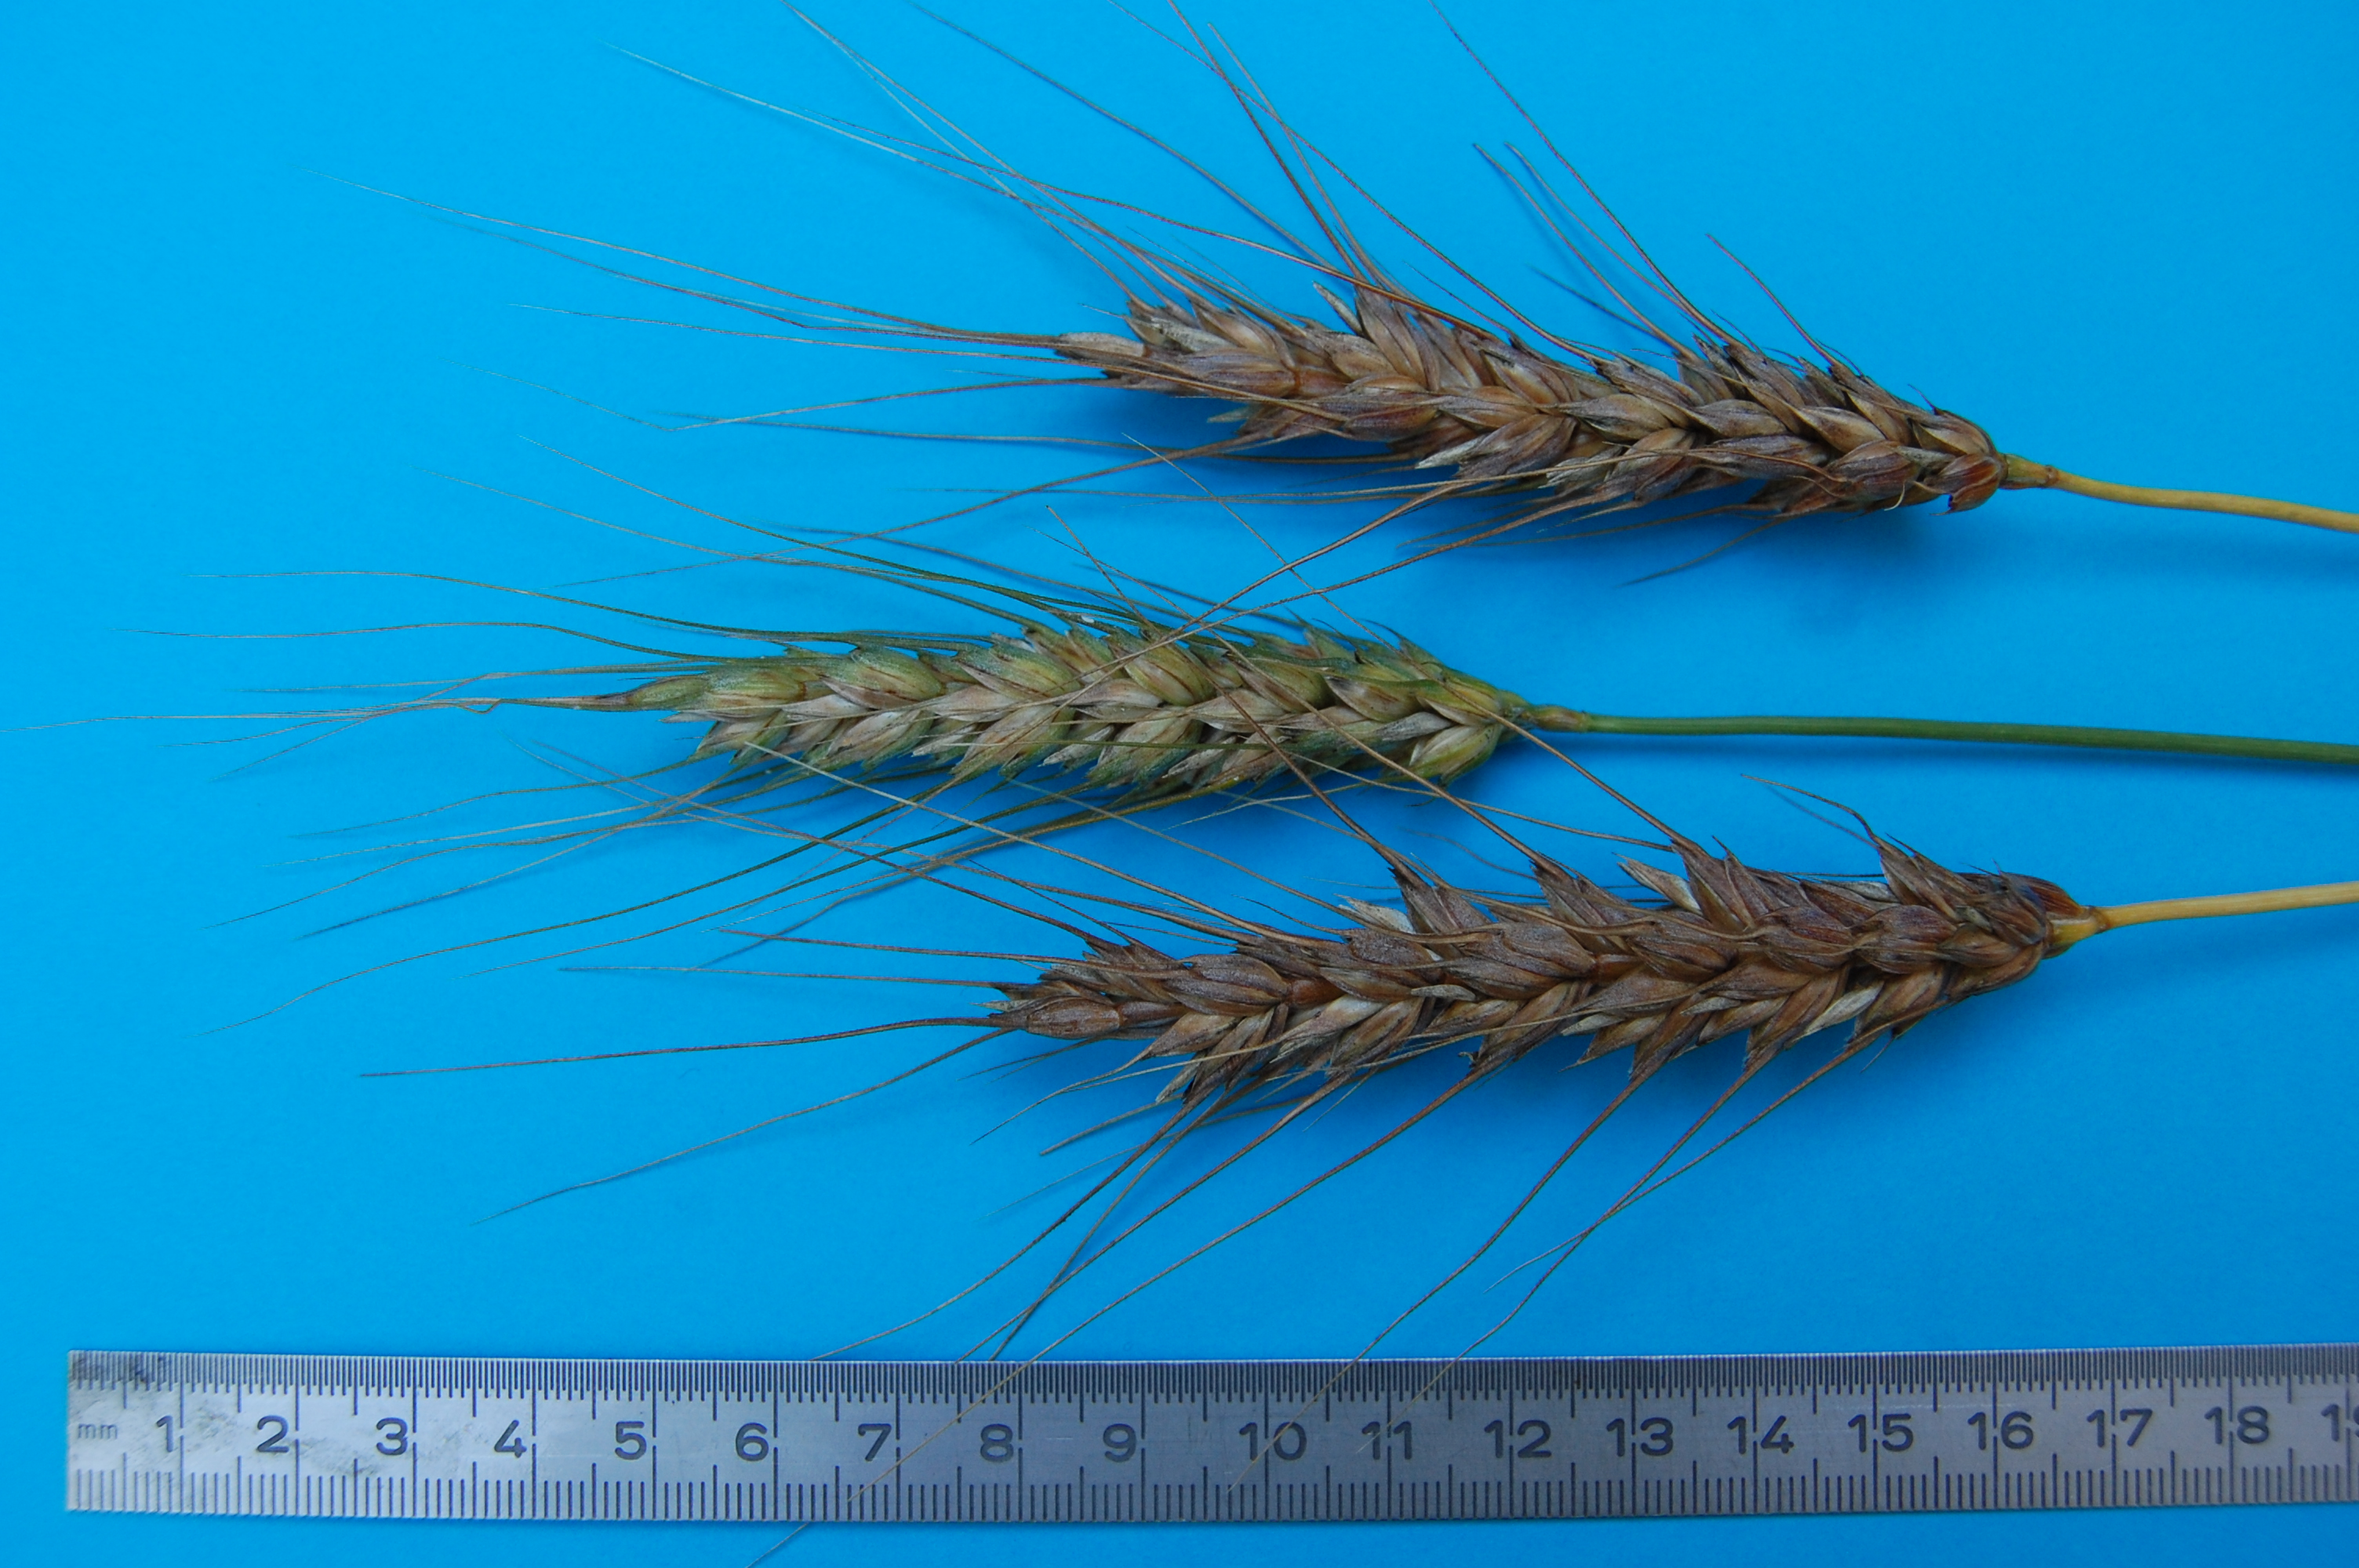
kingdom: Plantae
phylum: Tracheophyta
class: Liliopsida
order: Poales
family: Poaceae
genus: Triticum
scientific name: Triticum aestivum
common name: Common wheat
